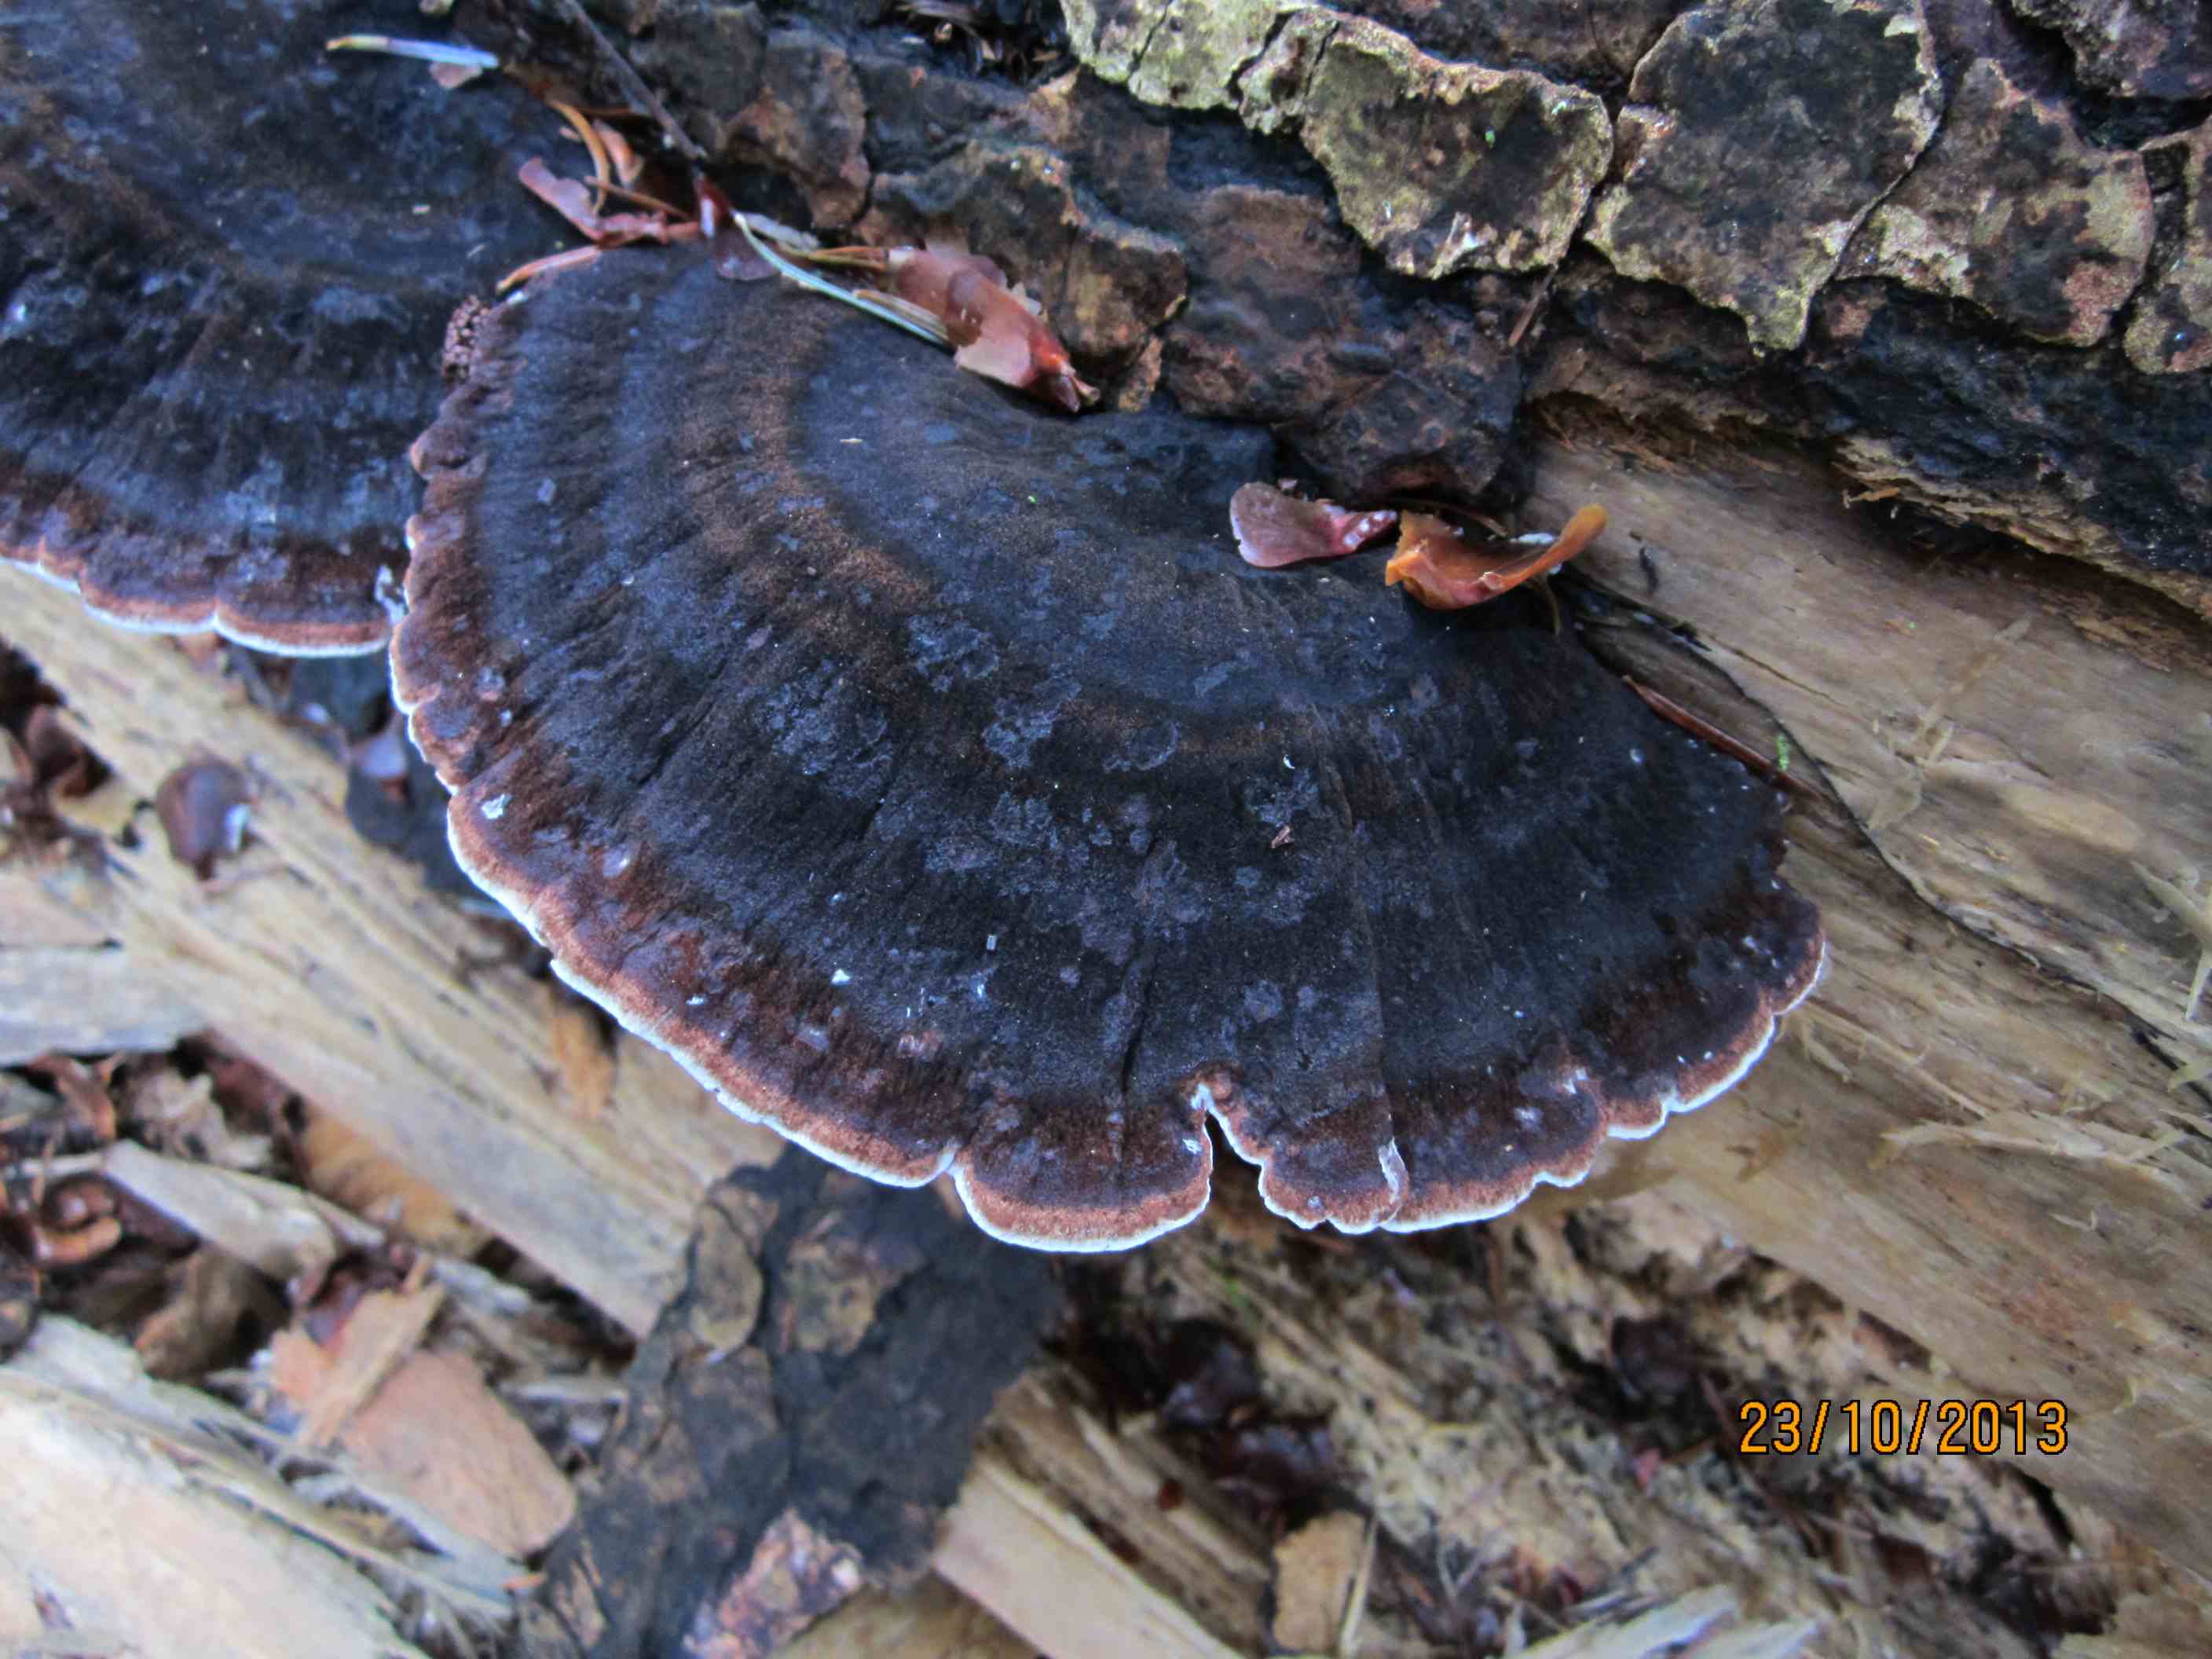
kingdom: Fungi
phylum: Basidiomycota
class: Agaricomycetes
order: Polyporales
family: Ischnodermataceae
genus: Ischnoderma
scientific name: Ischnoderma benzoinum
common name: gran-tjæreporesvamp
